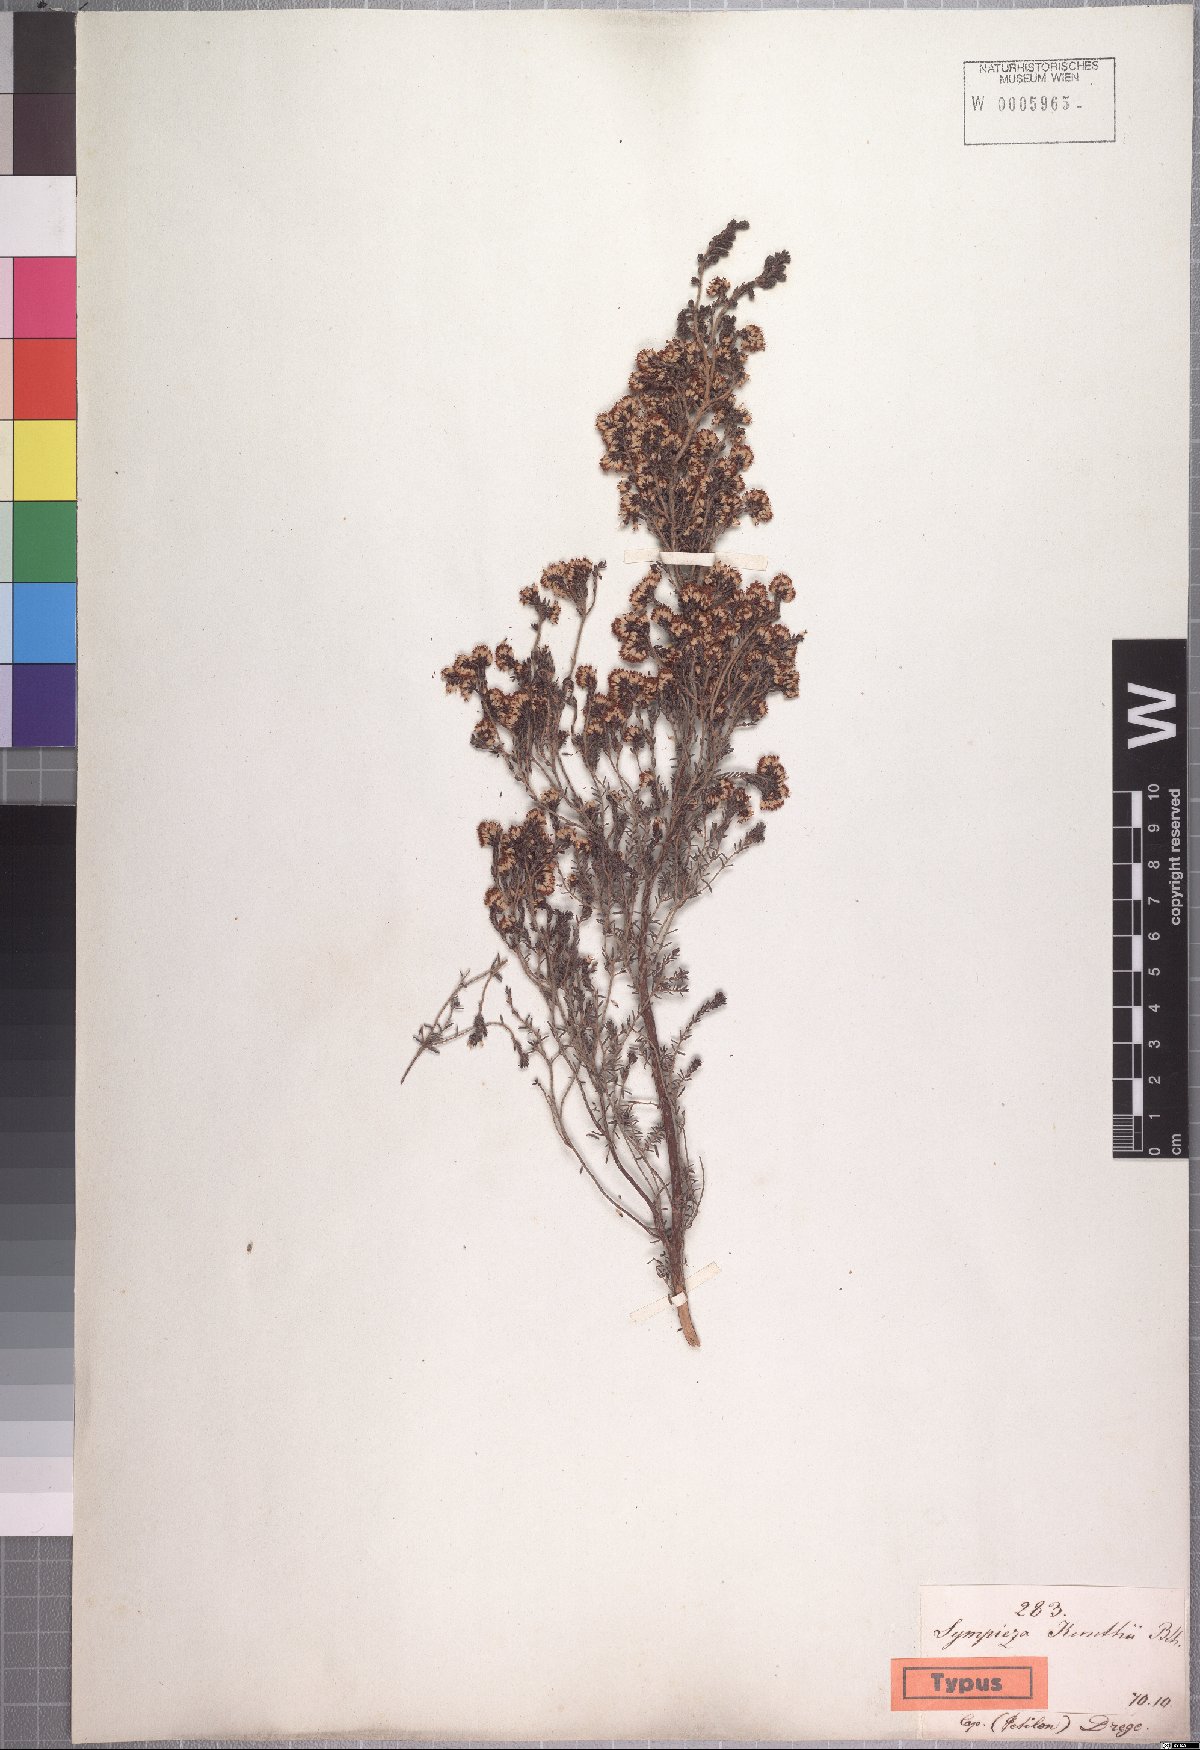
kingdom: Plantae
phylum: Tracheophyta
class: Magnoliopsida
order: Ericales
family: Ericaceae
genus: Erica
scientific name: Erica benthamiana
